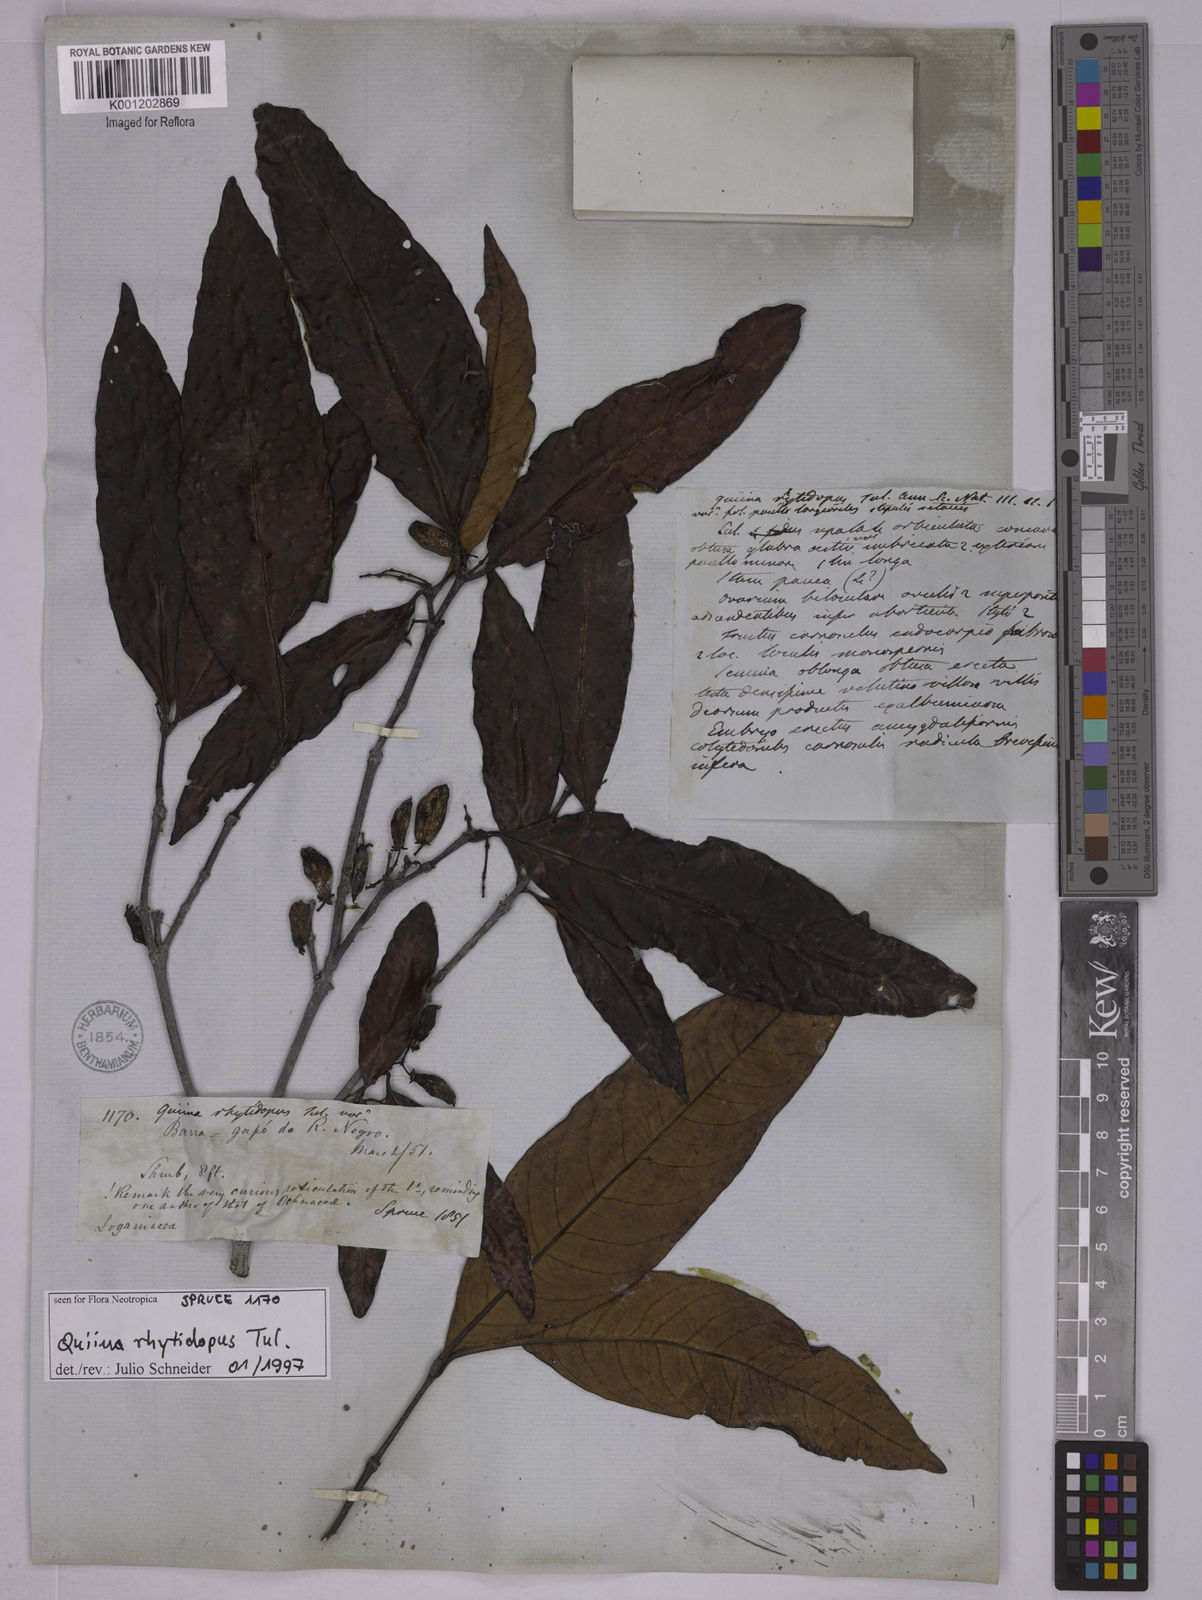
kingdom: Plantae
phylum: Tracheophyta
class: Magnoliopsida
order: Malpighiales
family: Quiinaceae
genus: Quiina
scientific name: Quiina rhytidopus
